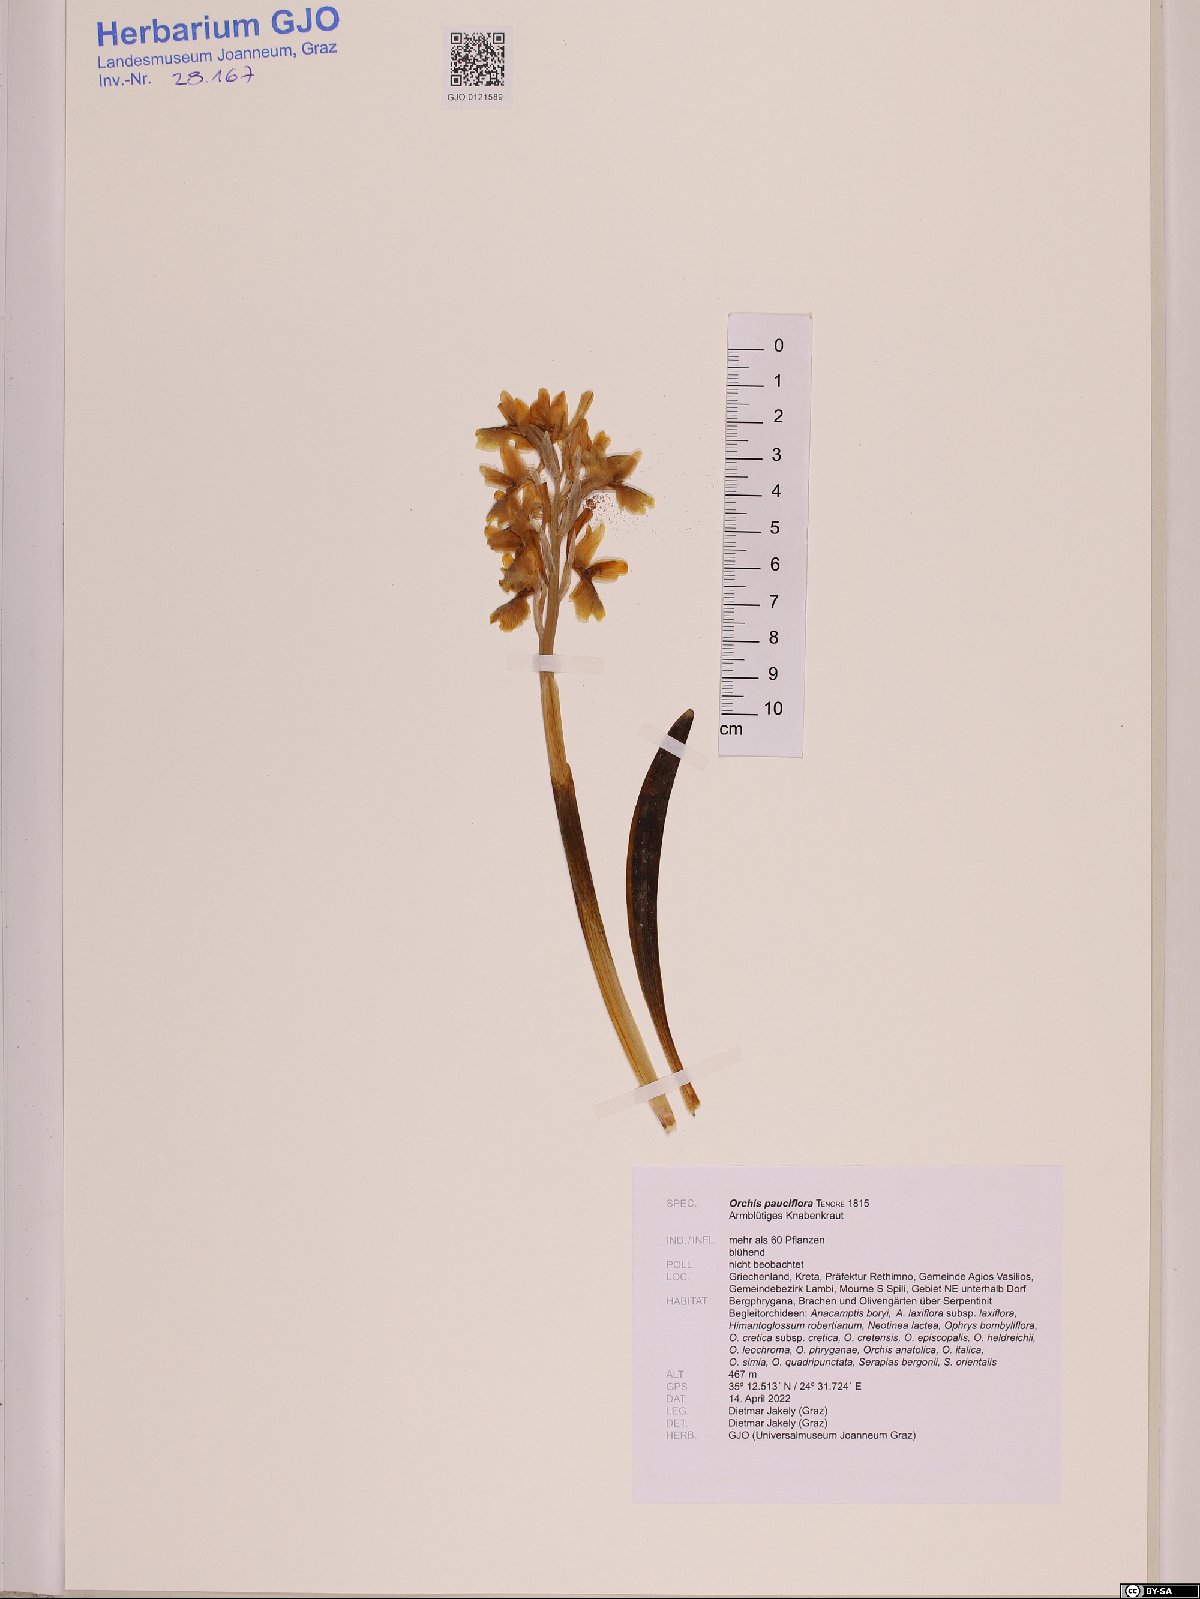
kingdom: Plantae
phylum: Tracheophyta
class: Liliopsida
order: Asparagales
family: Orchidaceae
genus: Orchis
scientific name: Orchis pauciflora
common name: Few-flowered orchid
